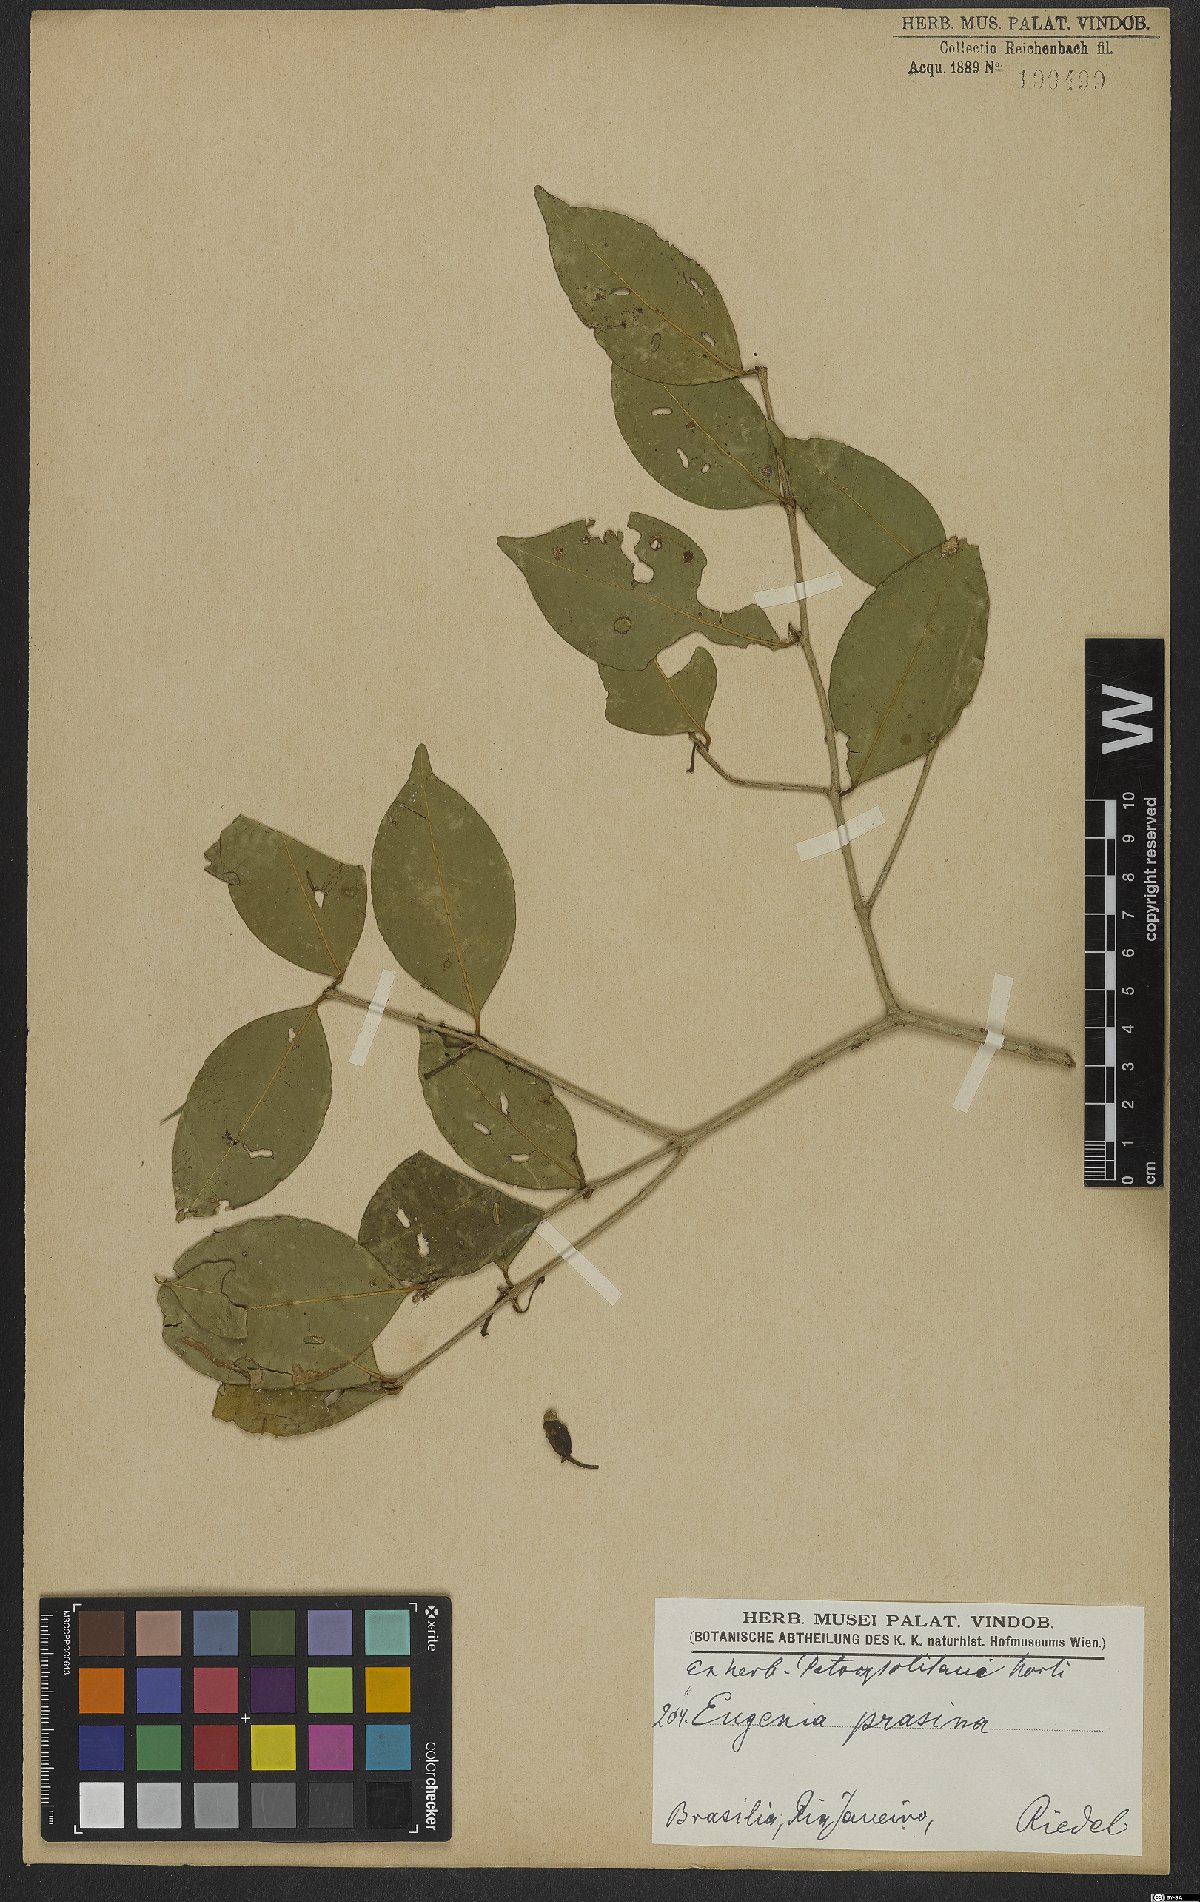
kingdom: Plantae
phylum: Tracheophyta
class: Magnoliopsida
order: Myrtales
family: Myrtaceae
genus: Eugenia
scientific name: Eugenia pluriflora
